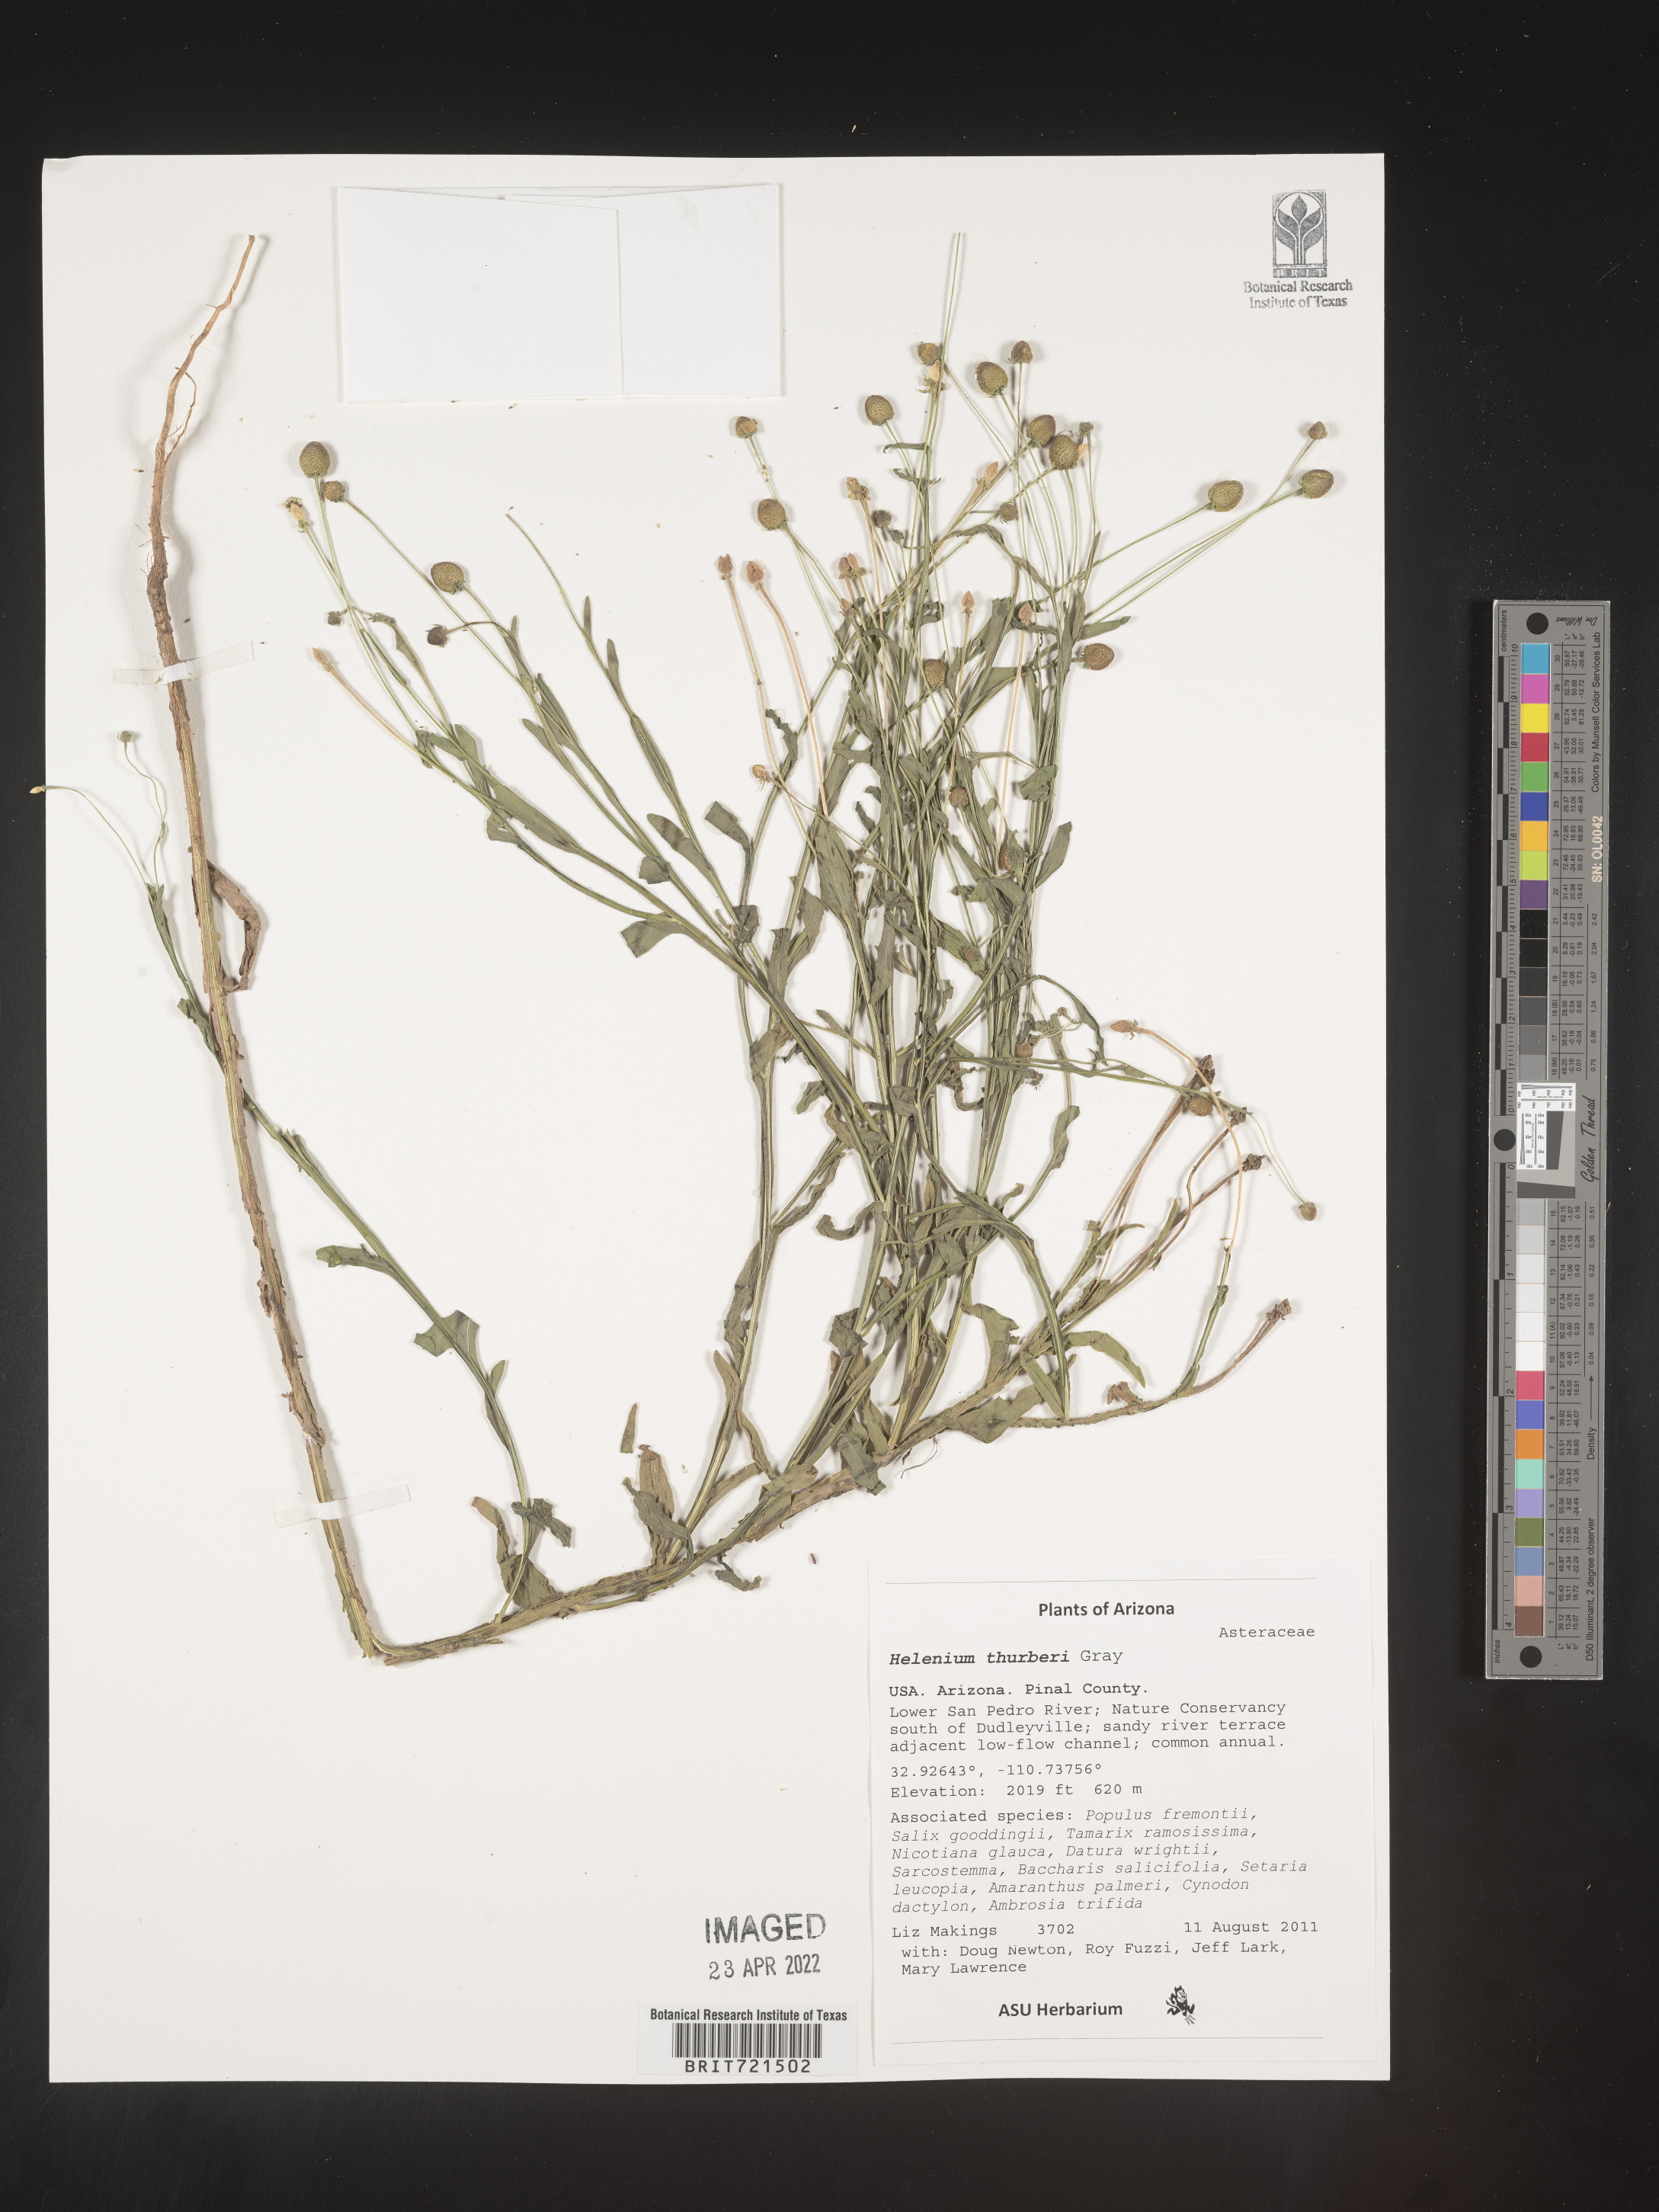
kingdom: Plantae
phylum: Tracheophyta
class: Magnoliopsida
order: Asterales
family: Asteraceae
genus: Helenium
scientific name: Helenium
